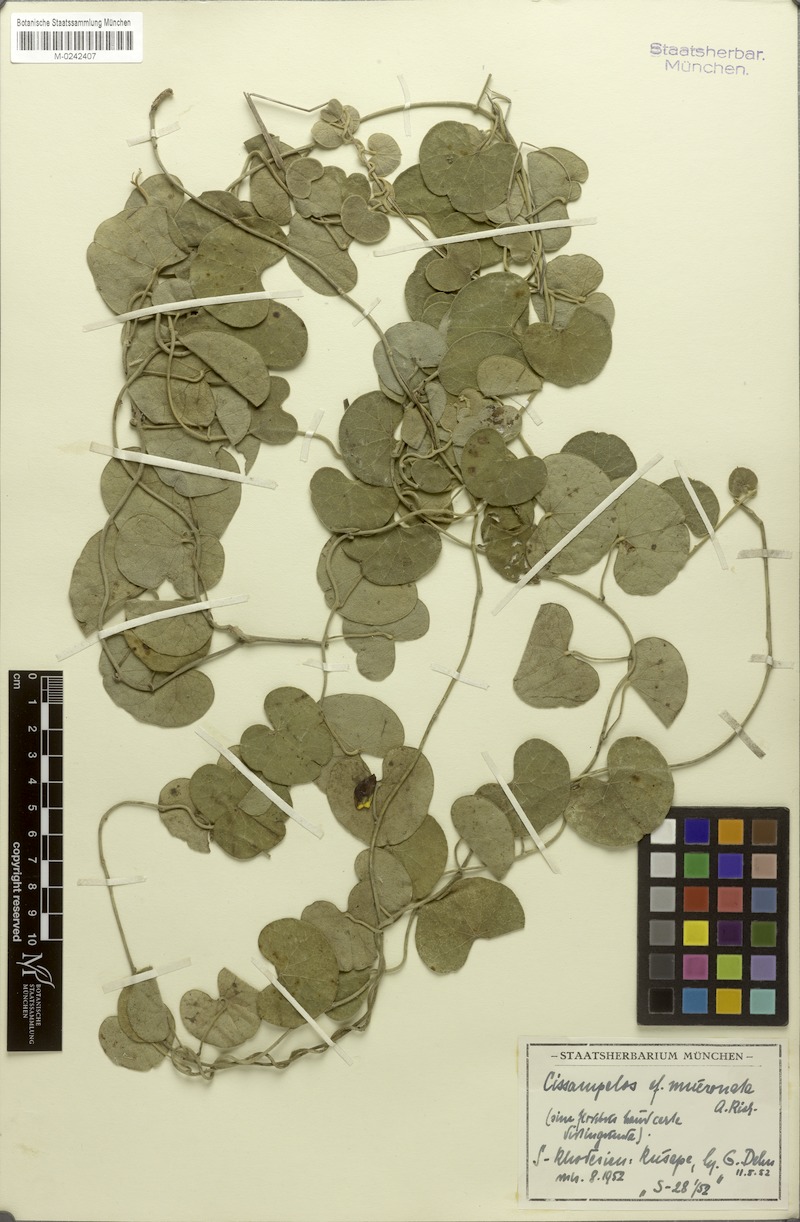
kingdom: Plantae
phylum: Tracheophyta
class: Magnoliopsida
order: Ranunculales
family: Menispermaceae
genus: Cissampelos
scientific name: Cissampelos mucronata
